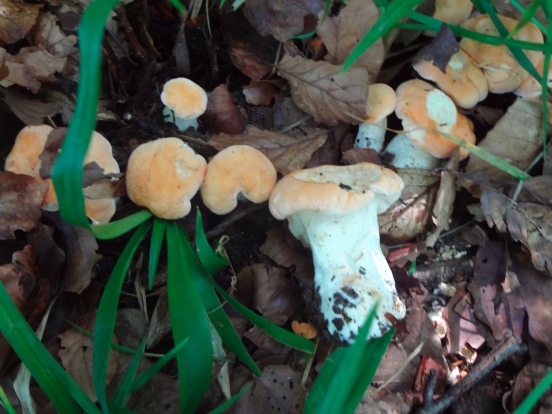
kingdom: Fungi
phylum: Basidiomycota
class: Agaricomycetes
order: Cantharellales
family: Hydnaceae
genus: Hydnum
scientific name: Hydnum rufescens
